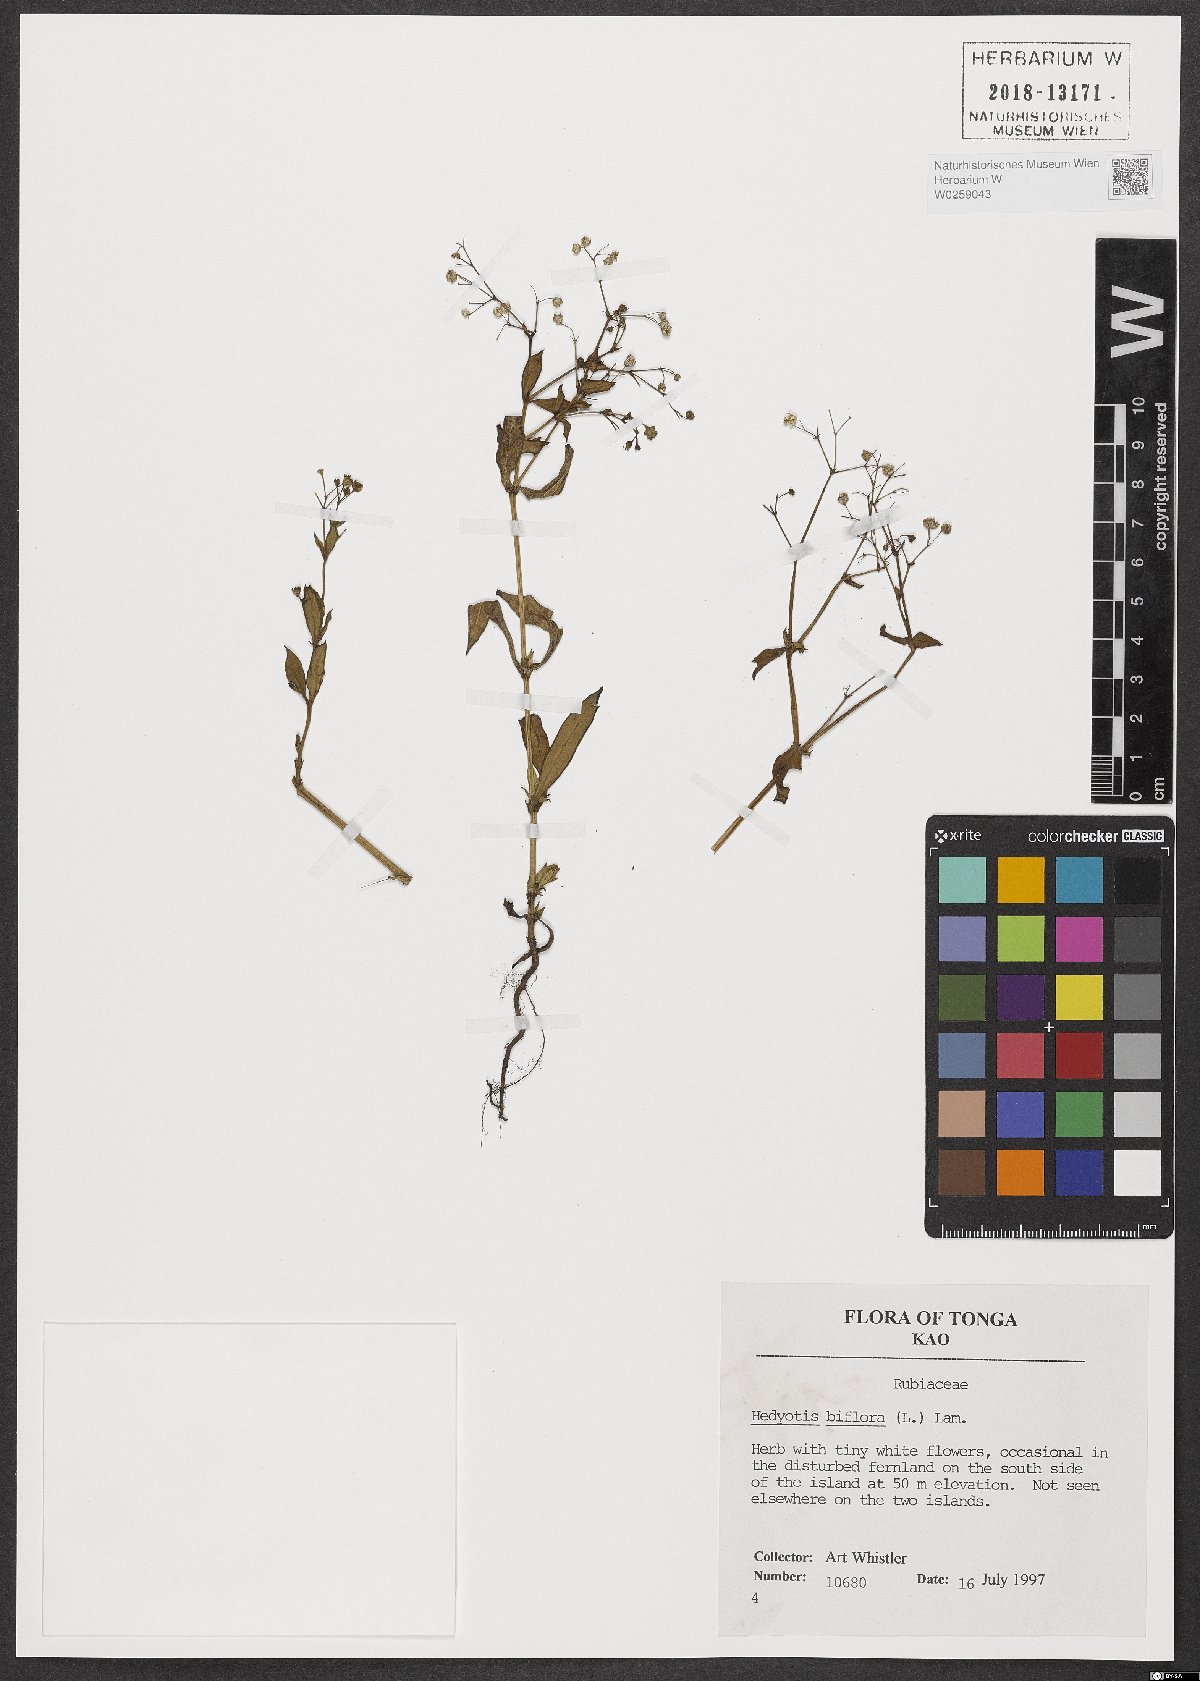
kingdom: Plantae
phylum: Tracheophyta
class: Magnoliopsida
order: Gentianales
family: Rubiaceae
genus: Leptopetalum
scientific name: Leptopetalum biflorum
